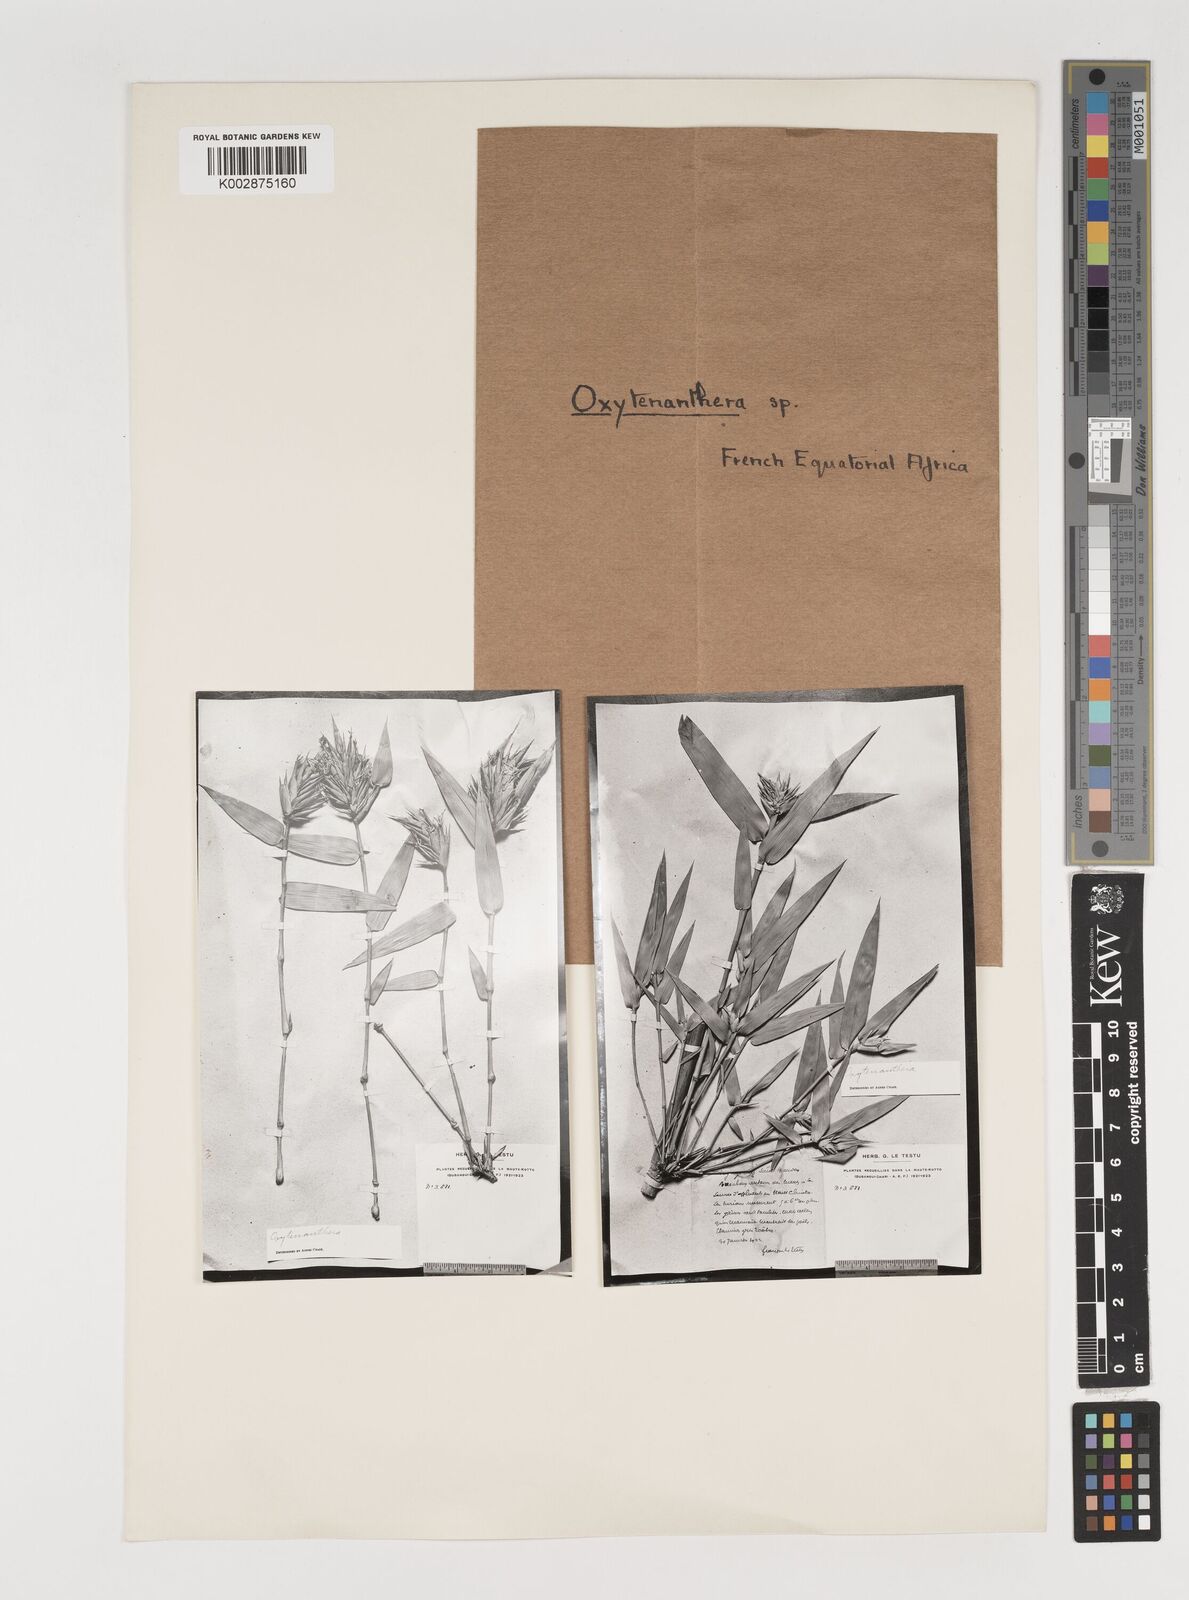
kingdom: Plantae
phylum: Tracheophyta
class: Liliopsida
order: Poales
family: Poaceae
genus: Oxytenanthera
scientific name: Oxytenanthera abyssinica
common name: Wine bamboo
